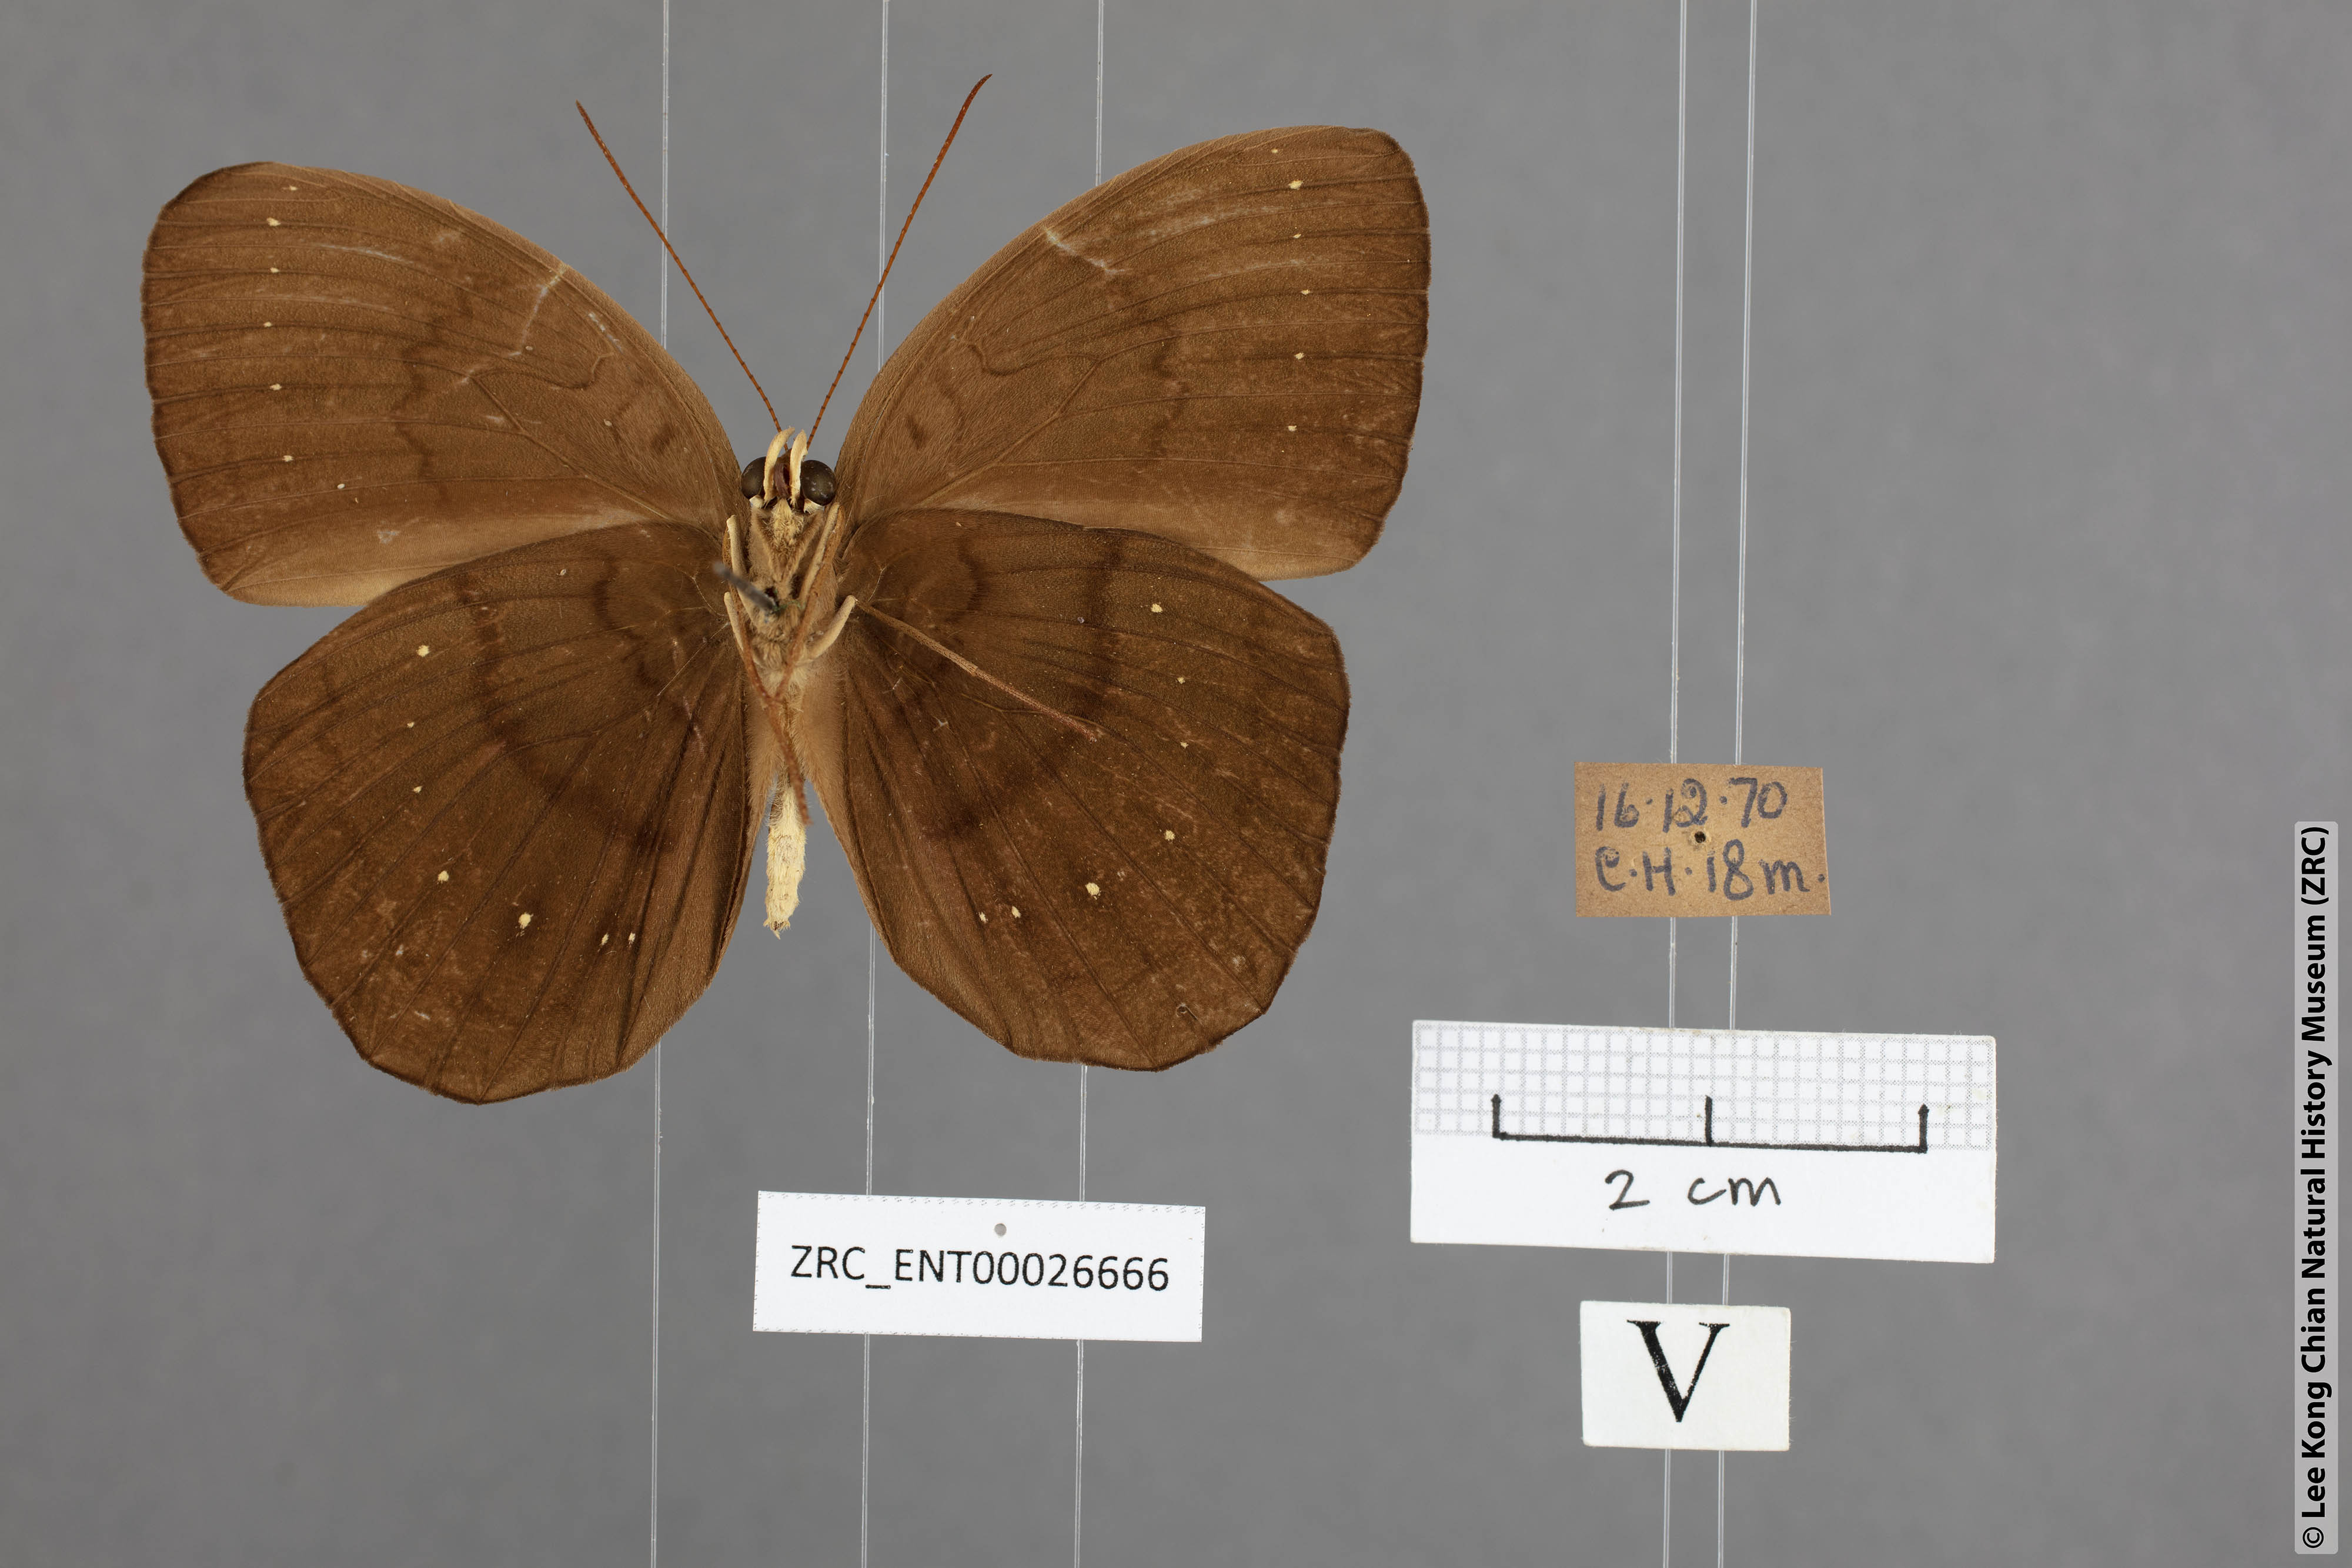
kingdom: Animalia
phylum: Arthropoda
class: Insecta
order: Lepidoptera
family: Nymphalidae
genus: Faunis
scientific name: Faunis canens
